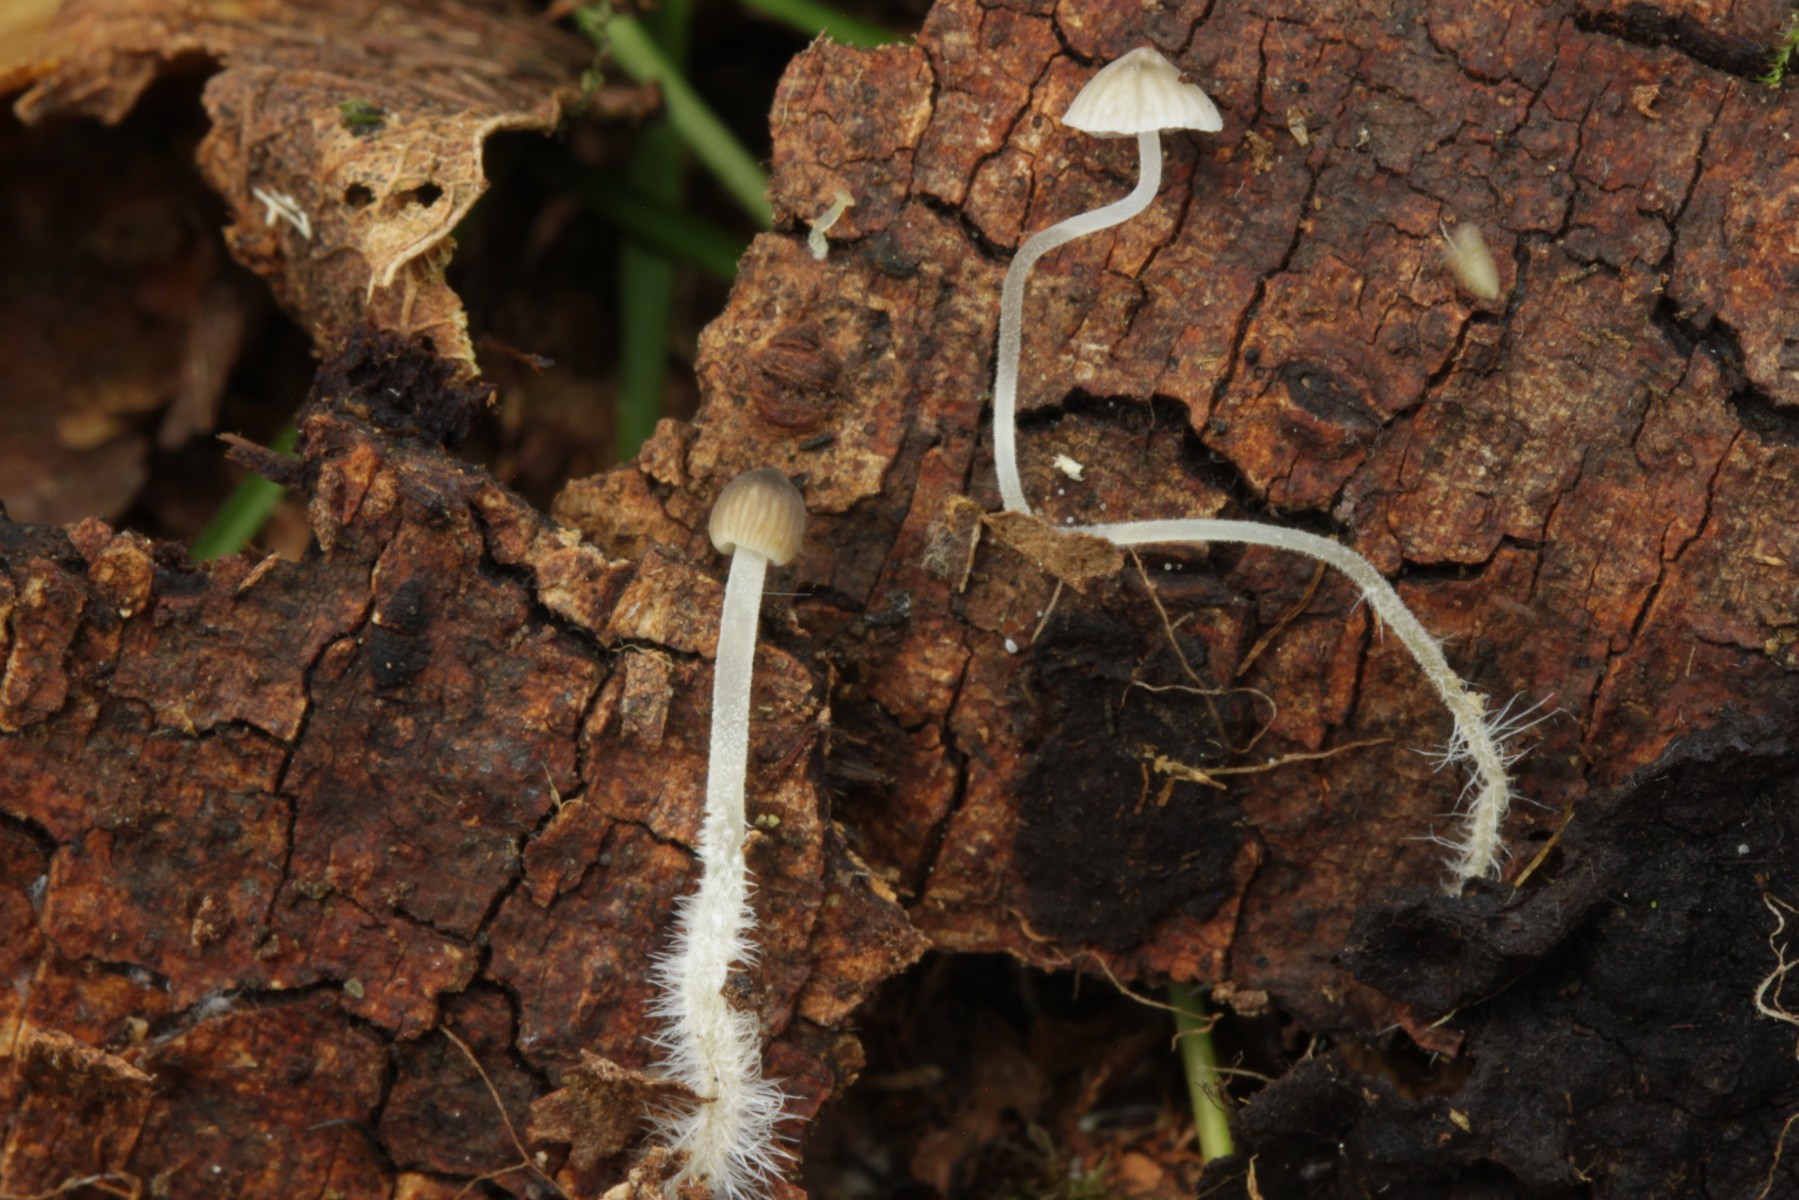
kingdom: Fungi
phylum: Basidiomycota
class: Agaricomycetes
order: Agaricales
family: Porotheleaceae
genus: Phloeomana
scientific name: Phloeomana hiemalis
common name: sen huesvamp
